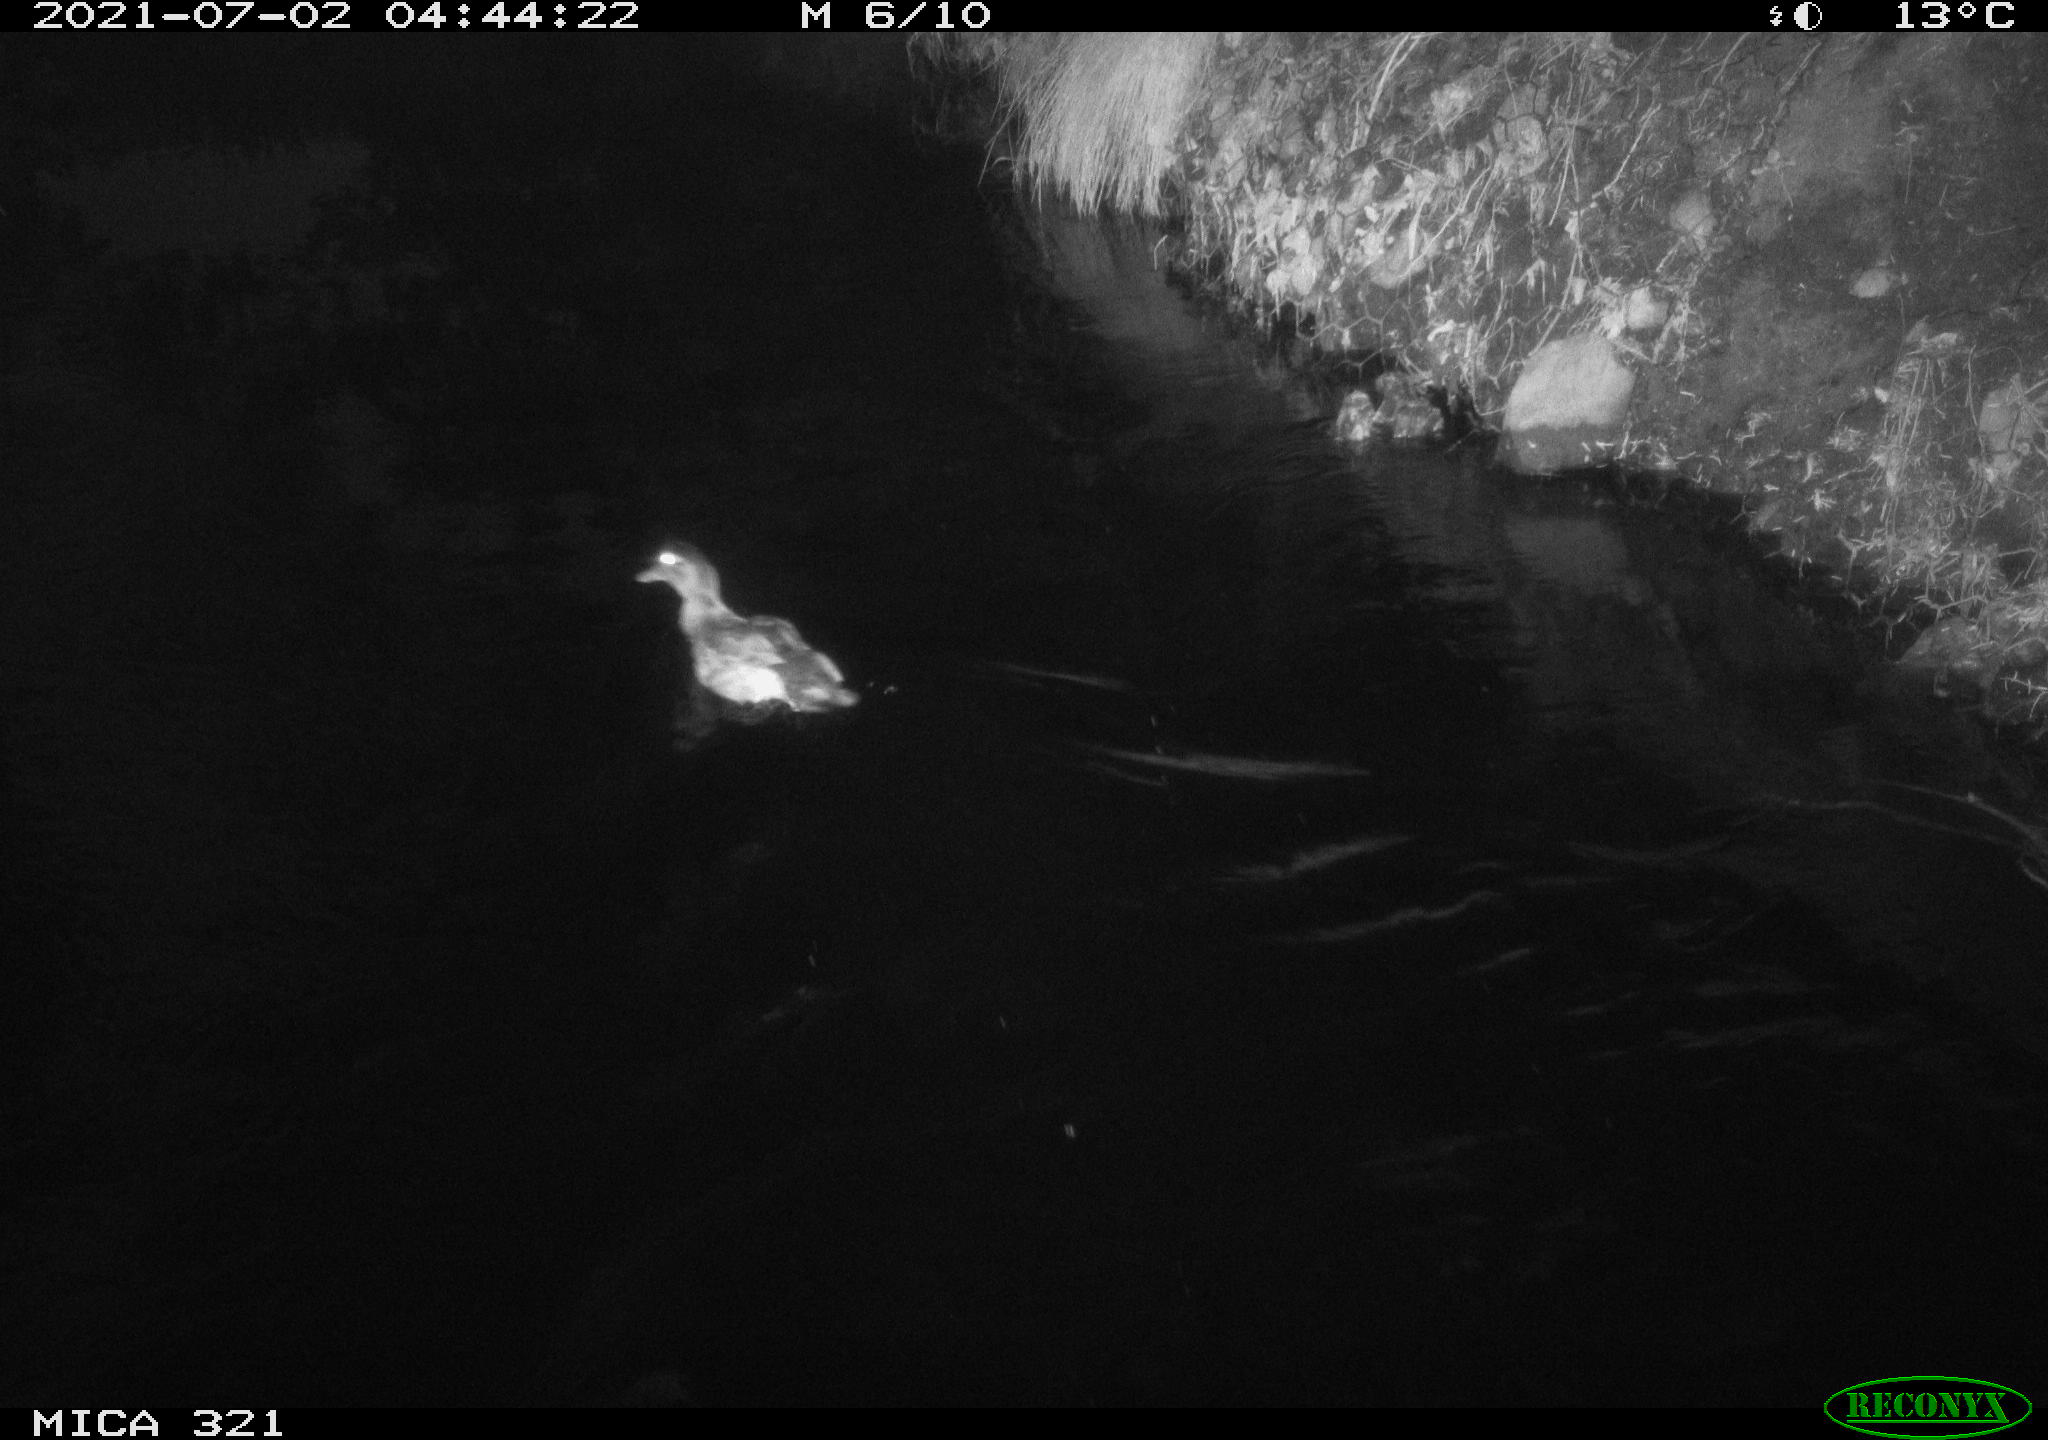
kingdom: Animalia
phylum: Chordata
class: Aves
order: Anseriformes
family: Anatidae
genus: Anas
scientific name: Anas platyrhynchos
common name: Mallard
